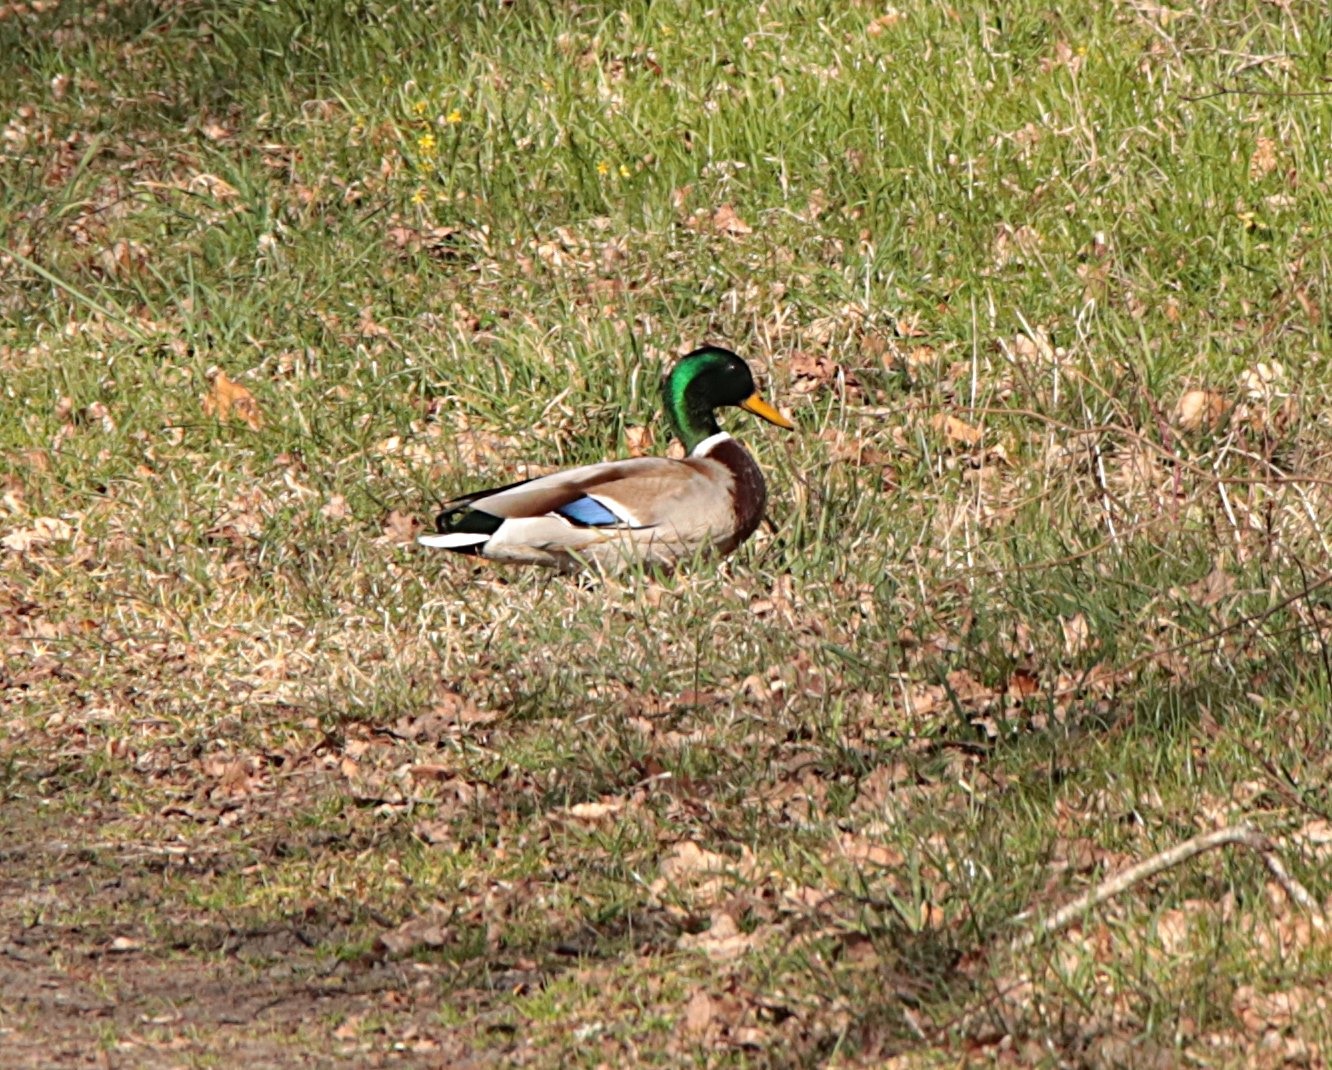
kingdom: Animalia
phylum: Chordata
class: Aves
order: Anseriformes
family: Anatidae
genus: Anas
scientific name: Anas platyrhynchos
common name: Gråand
